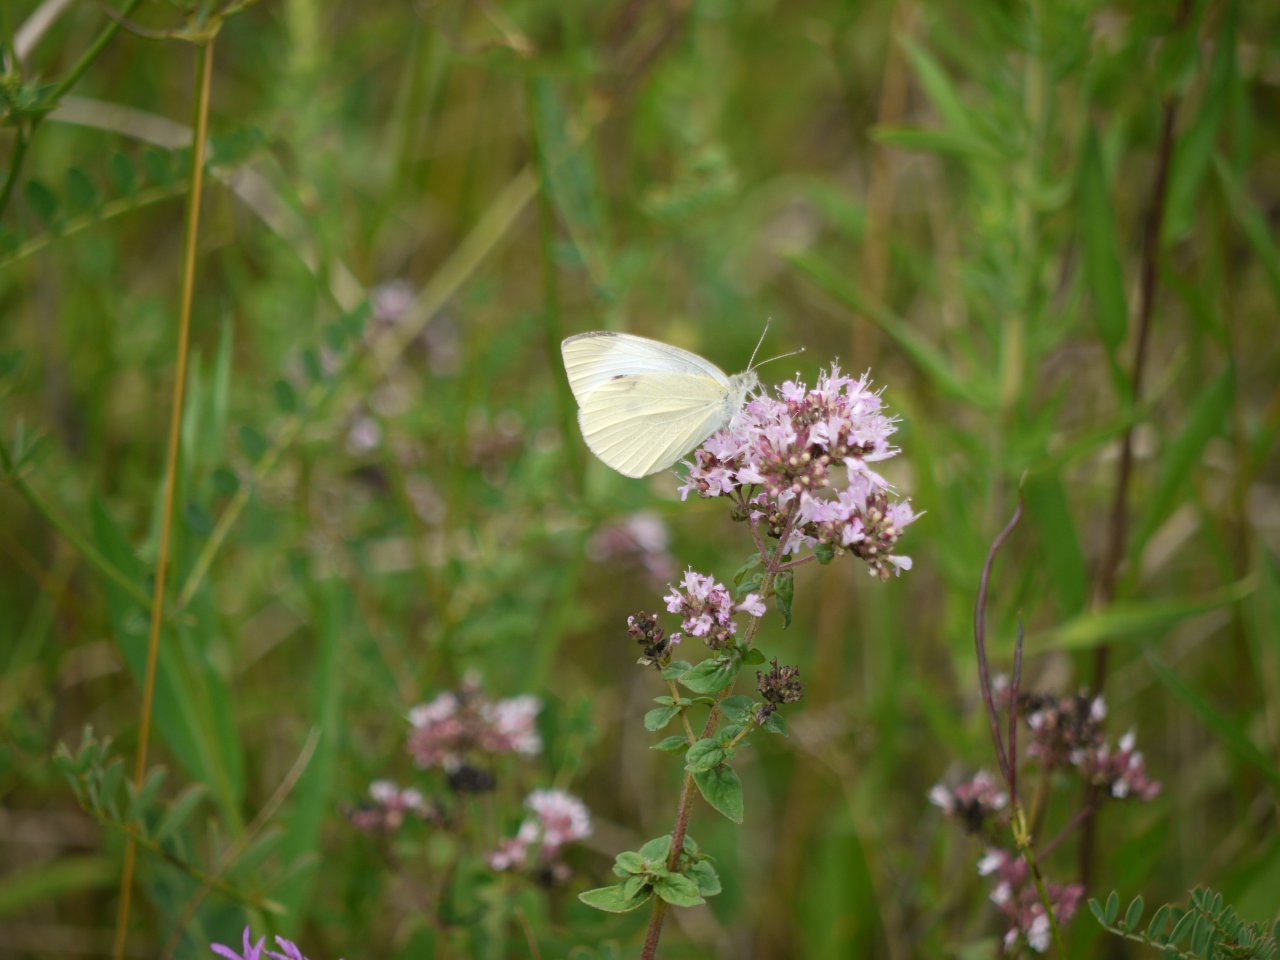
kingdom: Animalia
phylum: Arthropoda
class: Insecta
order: Lepidoptera
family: Pieridae
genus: Pieris
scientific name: Pieris rapae
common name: Cabbage White
